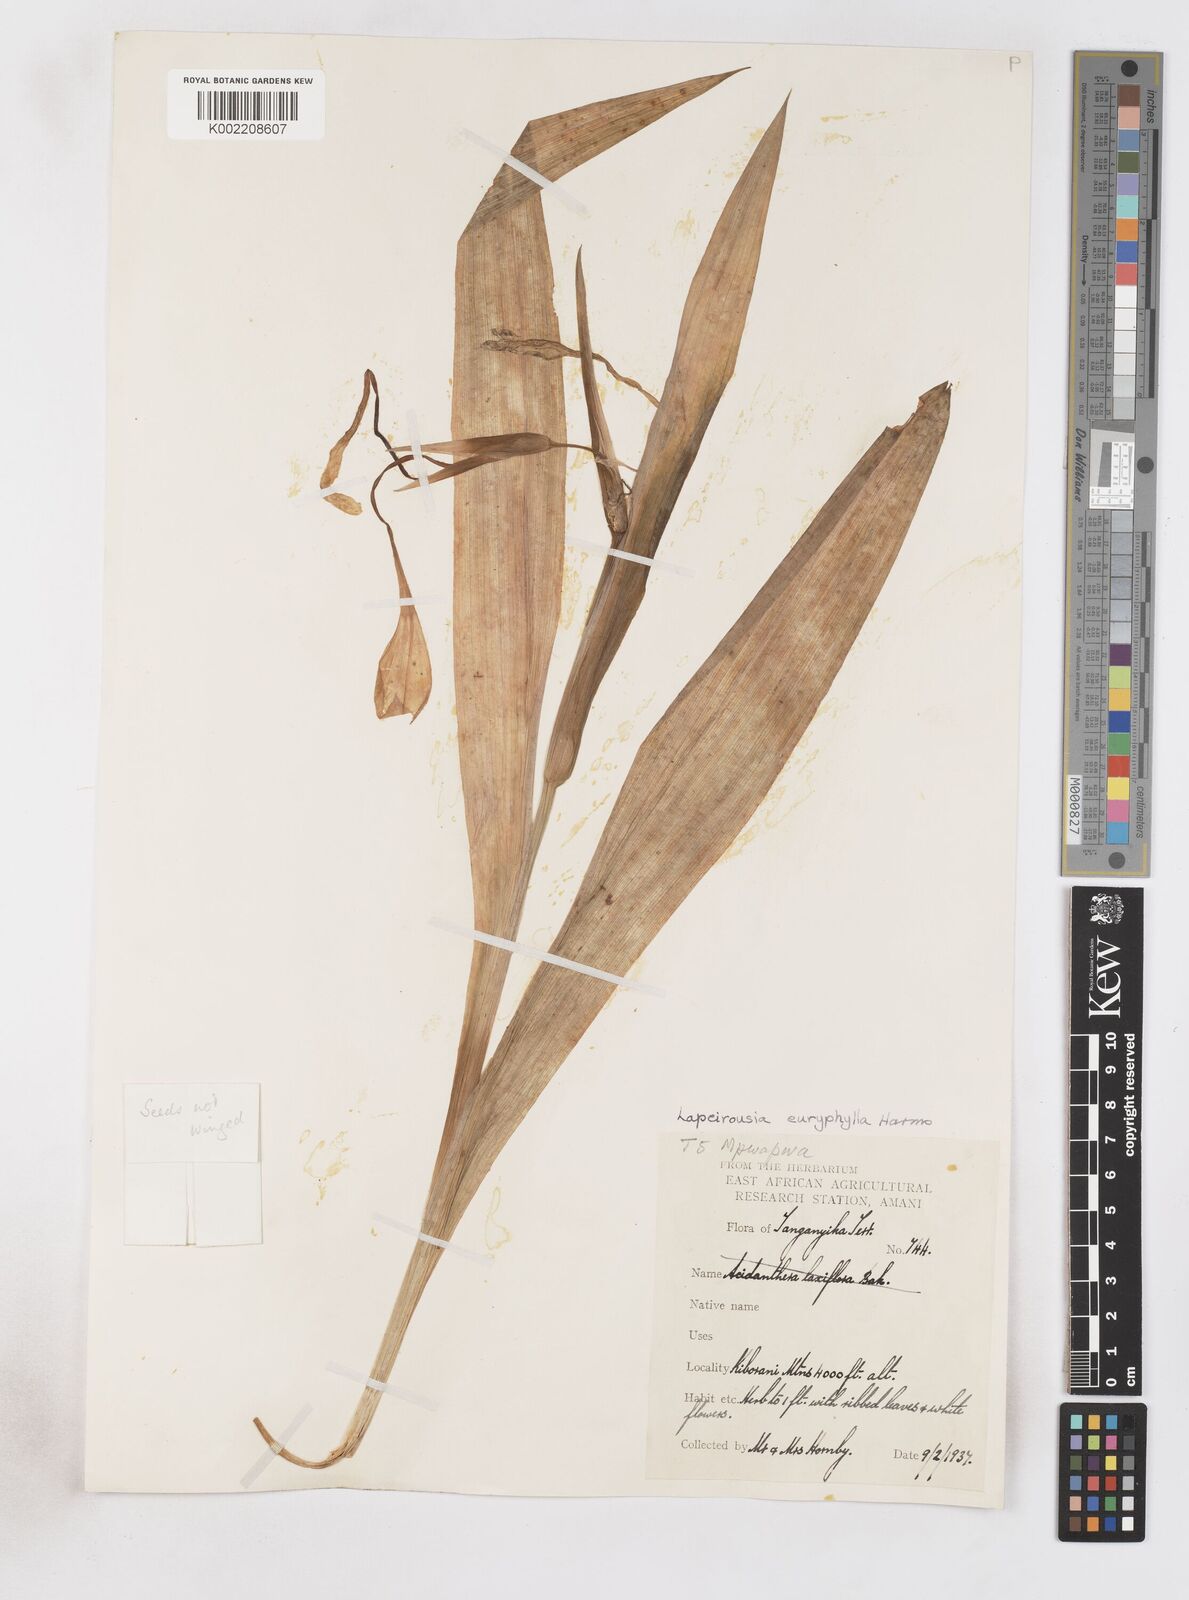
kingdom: Plantae
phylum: Tracheophyta
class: Liliopsida
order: Asparagales
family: Iridaceae
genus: Savannosiphon
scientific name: Savannosiphon euryphylla
